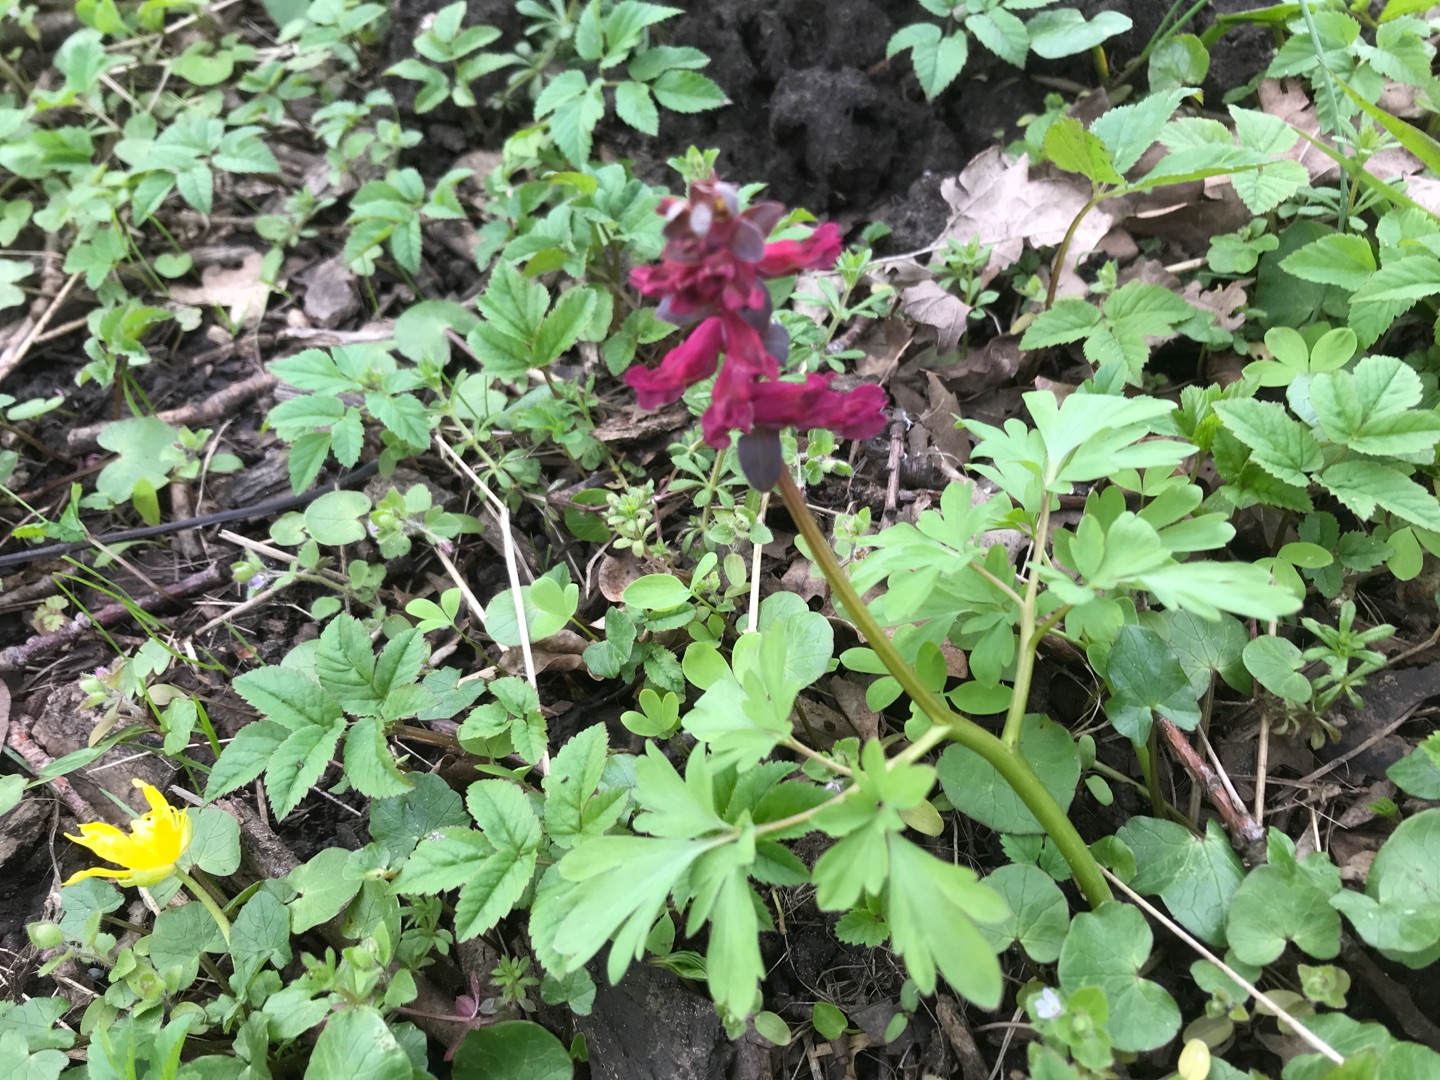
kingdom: Plantae
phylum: Tracheophyta
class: Magnoliopsida
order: Ranunculales
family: Papaveraceae
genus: Corydalis
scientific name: Corydalis cava
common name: Hulrodet lærkespore
